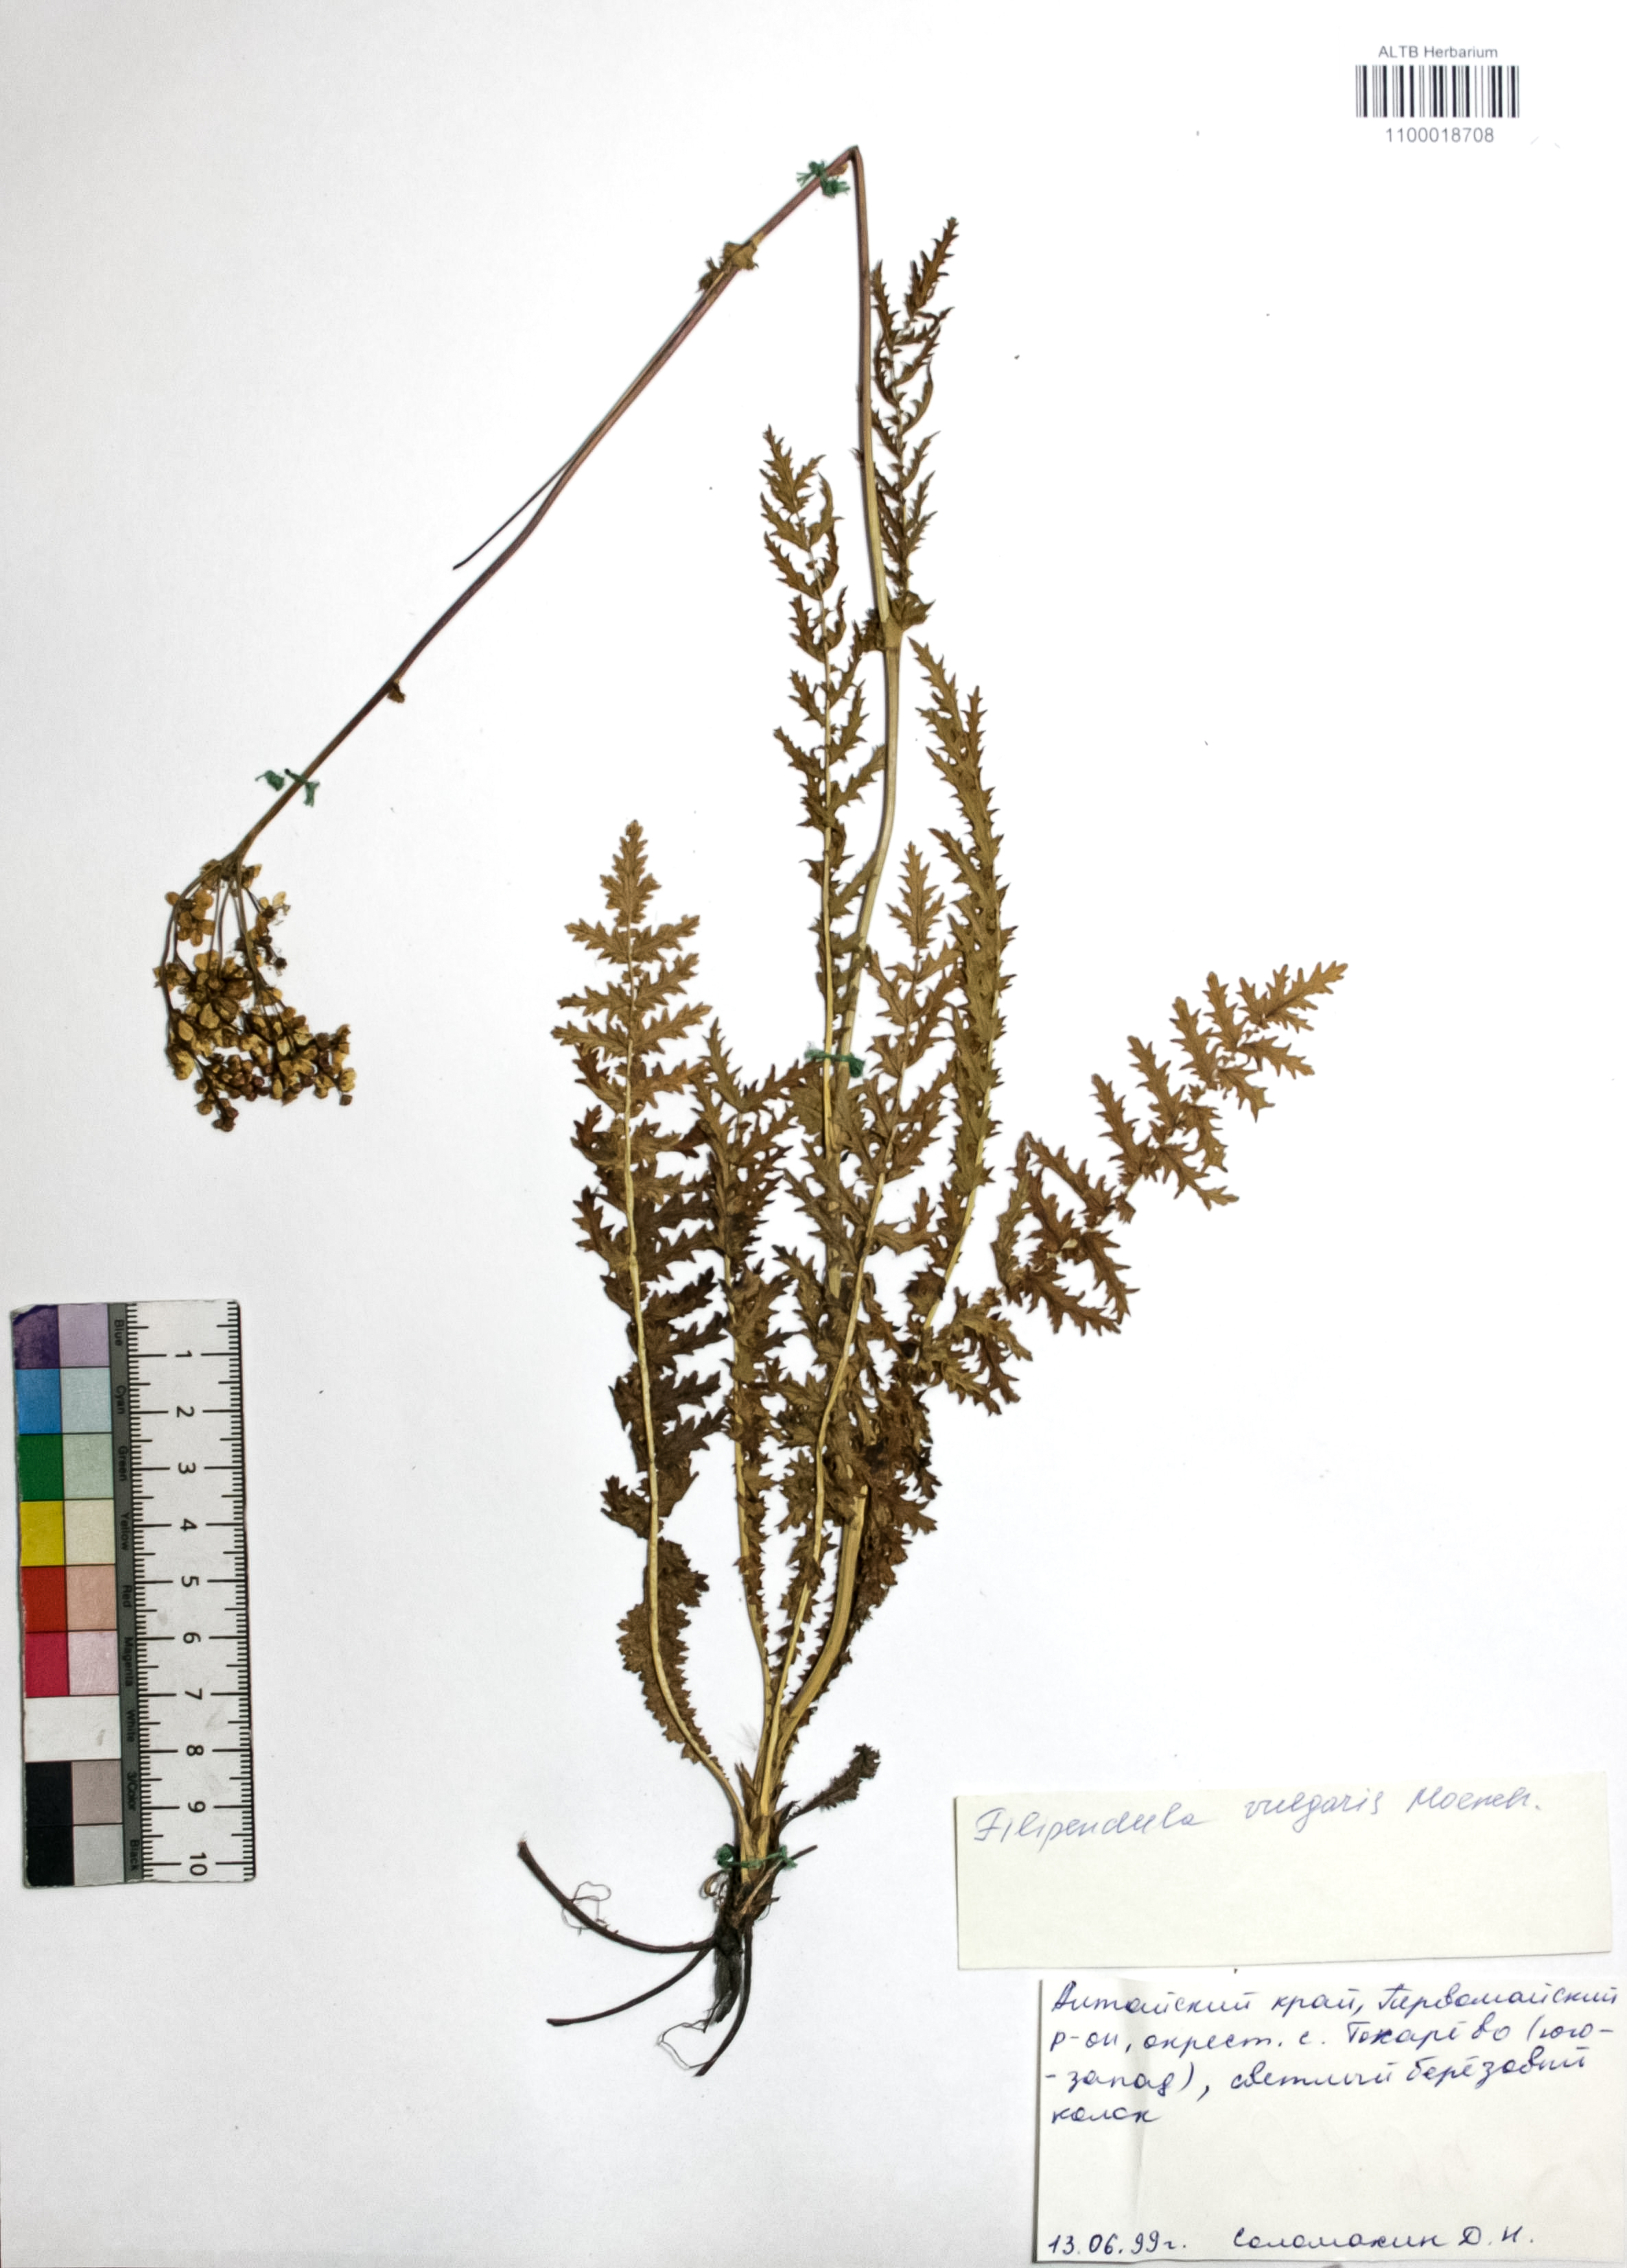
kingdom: Plantae
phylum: Tracheophyta
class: Magnoliopsida
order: Rosales
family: Rosaceae
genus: Filipendula
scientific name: Filipendula vulgaris
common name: Dropwort
